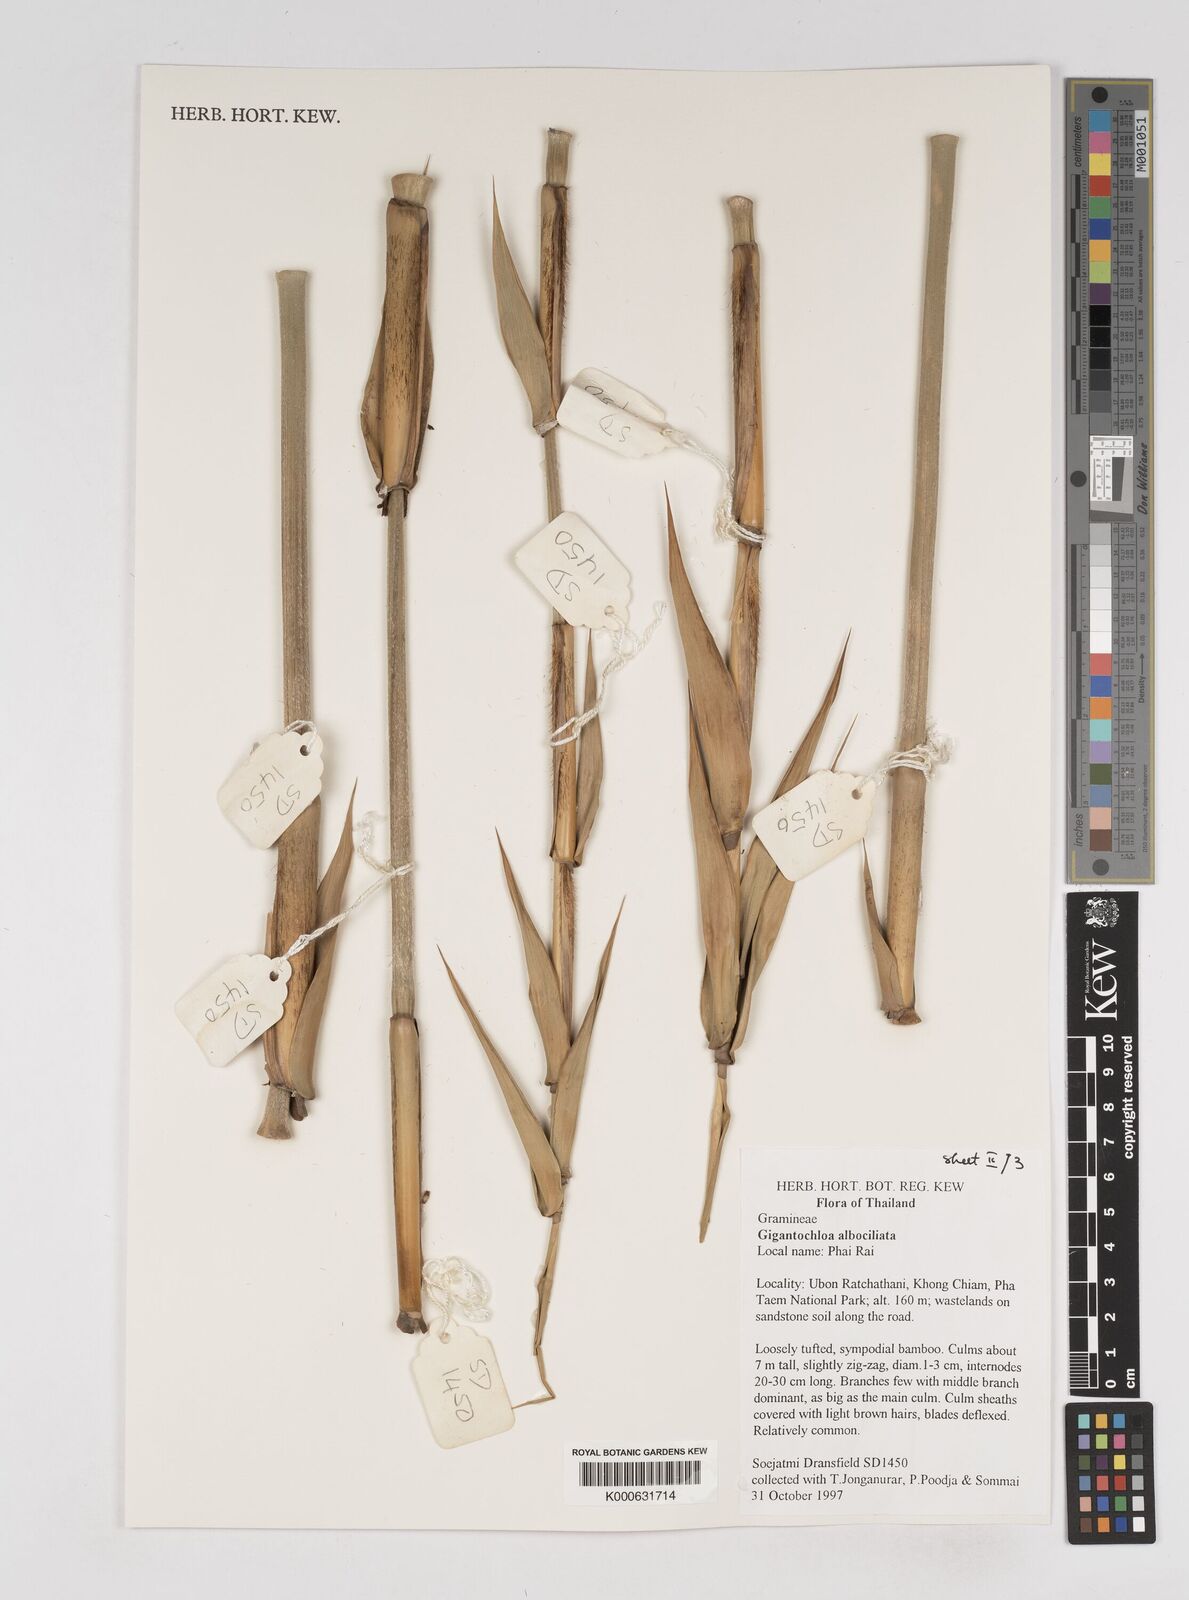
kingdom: Plantae
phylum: Tracheophyta
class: Liliopsida
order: Poales
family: Poaceae
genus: Gigantochloa
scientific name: Gigantochloa albociliata
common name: White-fringe gigantochloa
